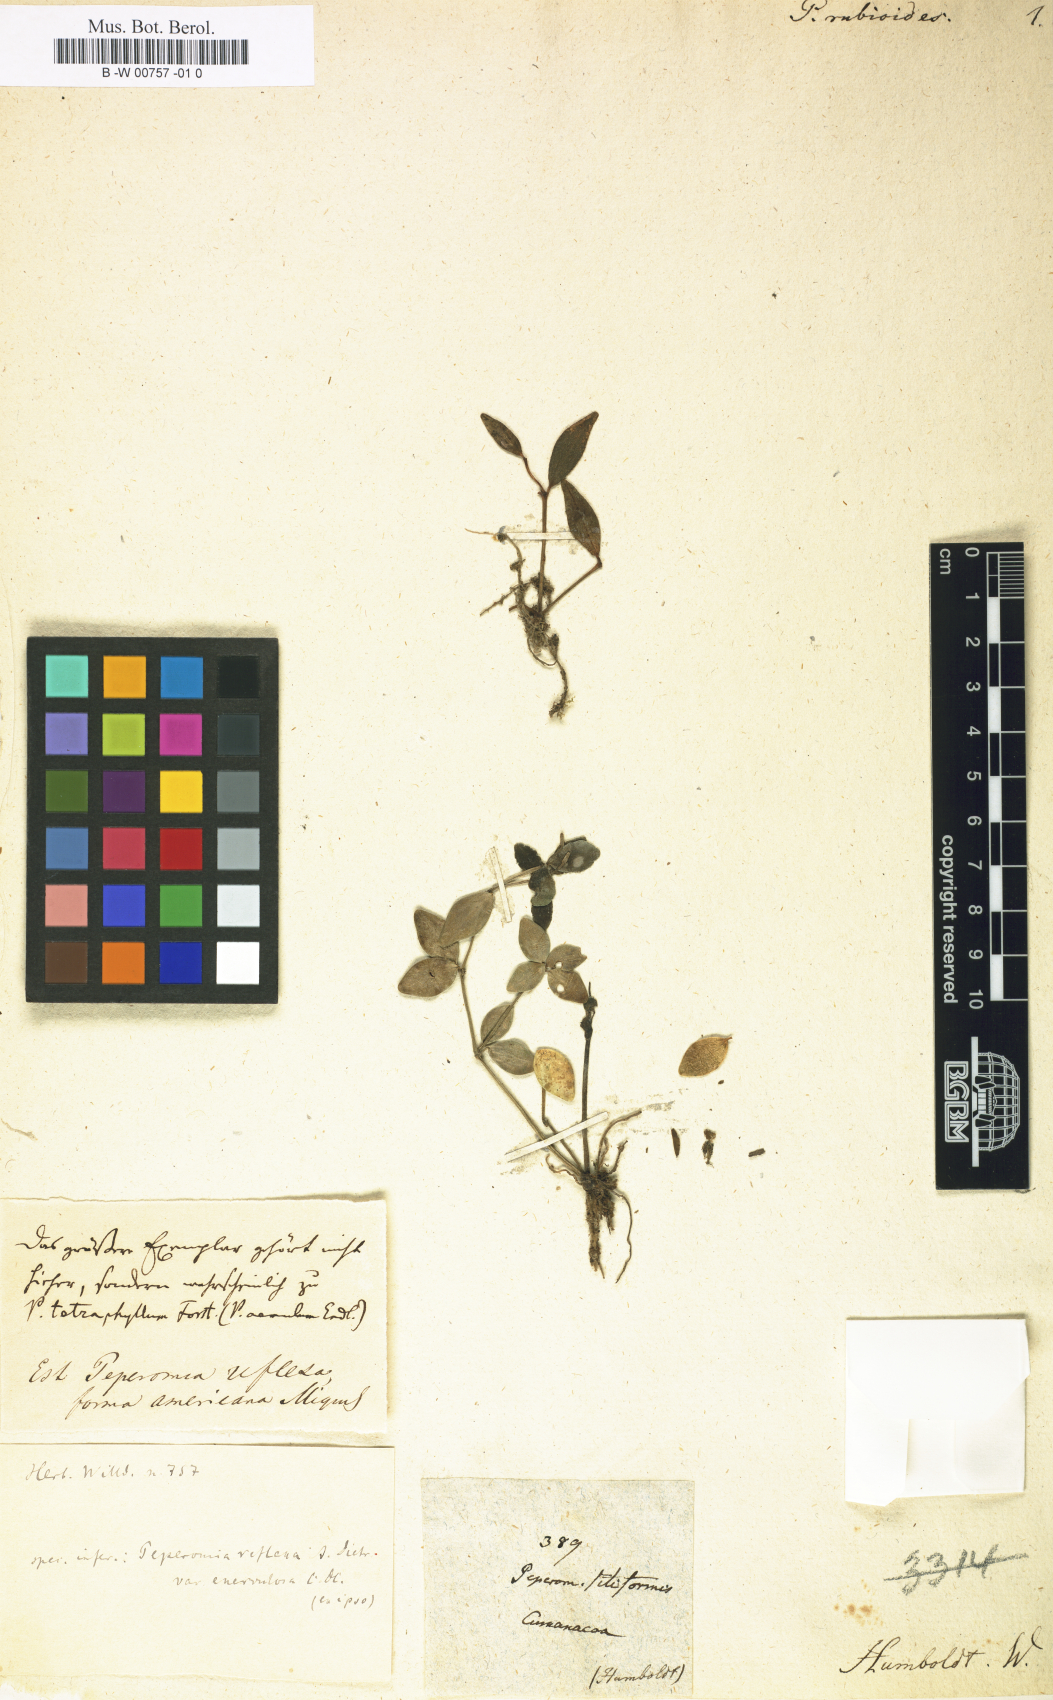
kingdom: Plantae
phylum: Tracheophyta
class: Magnoliopsida
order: Piperales
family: Piperaceae
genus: Peperomia
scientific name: Peperomia rhombea
